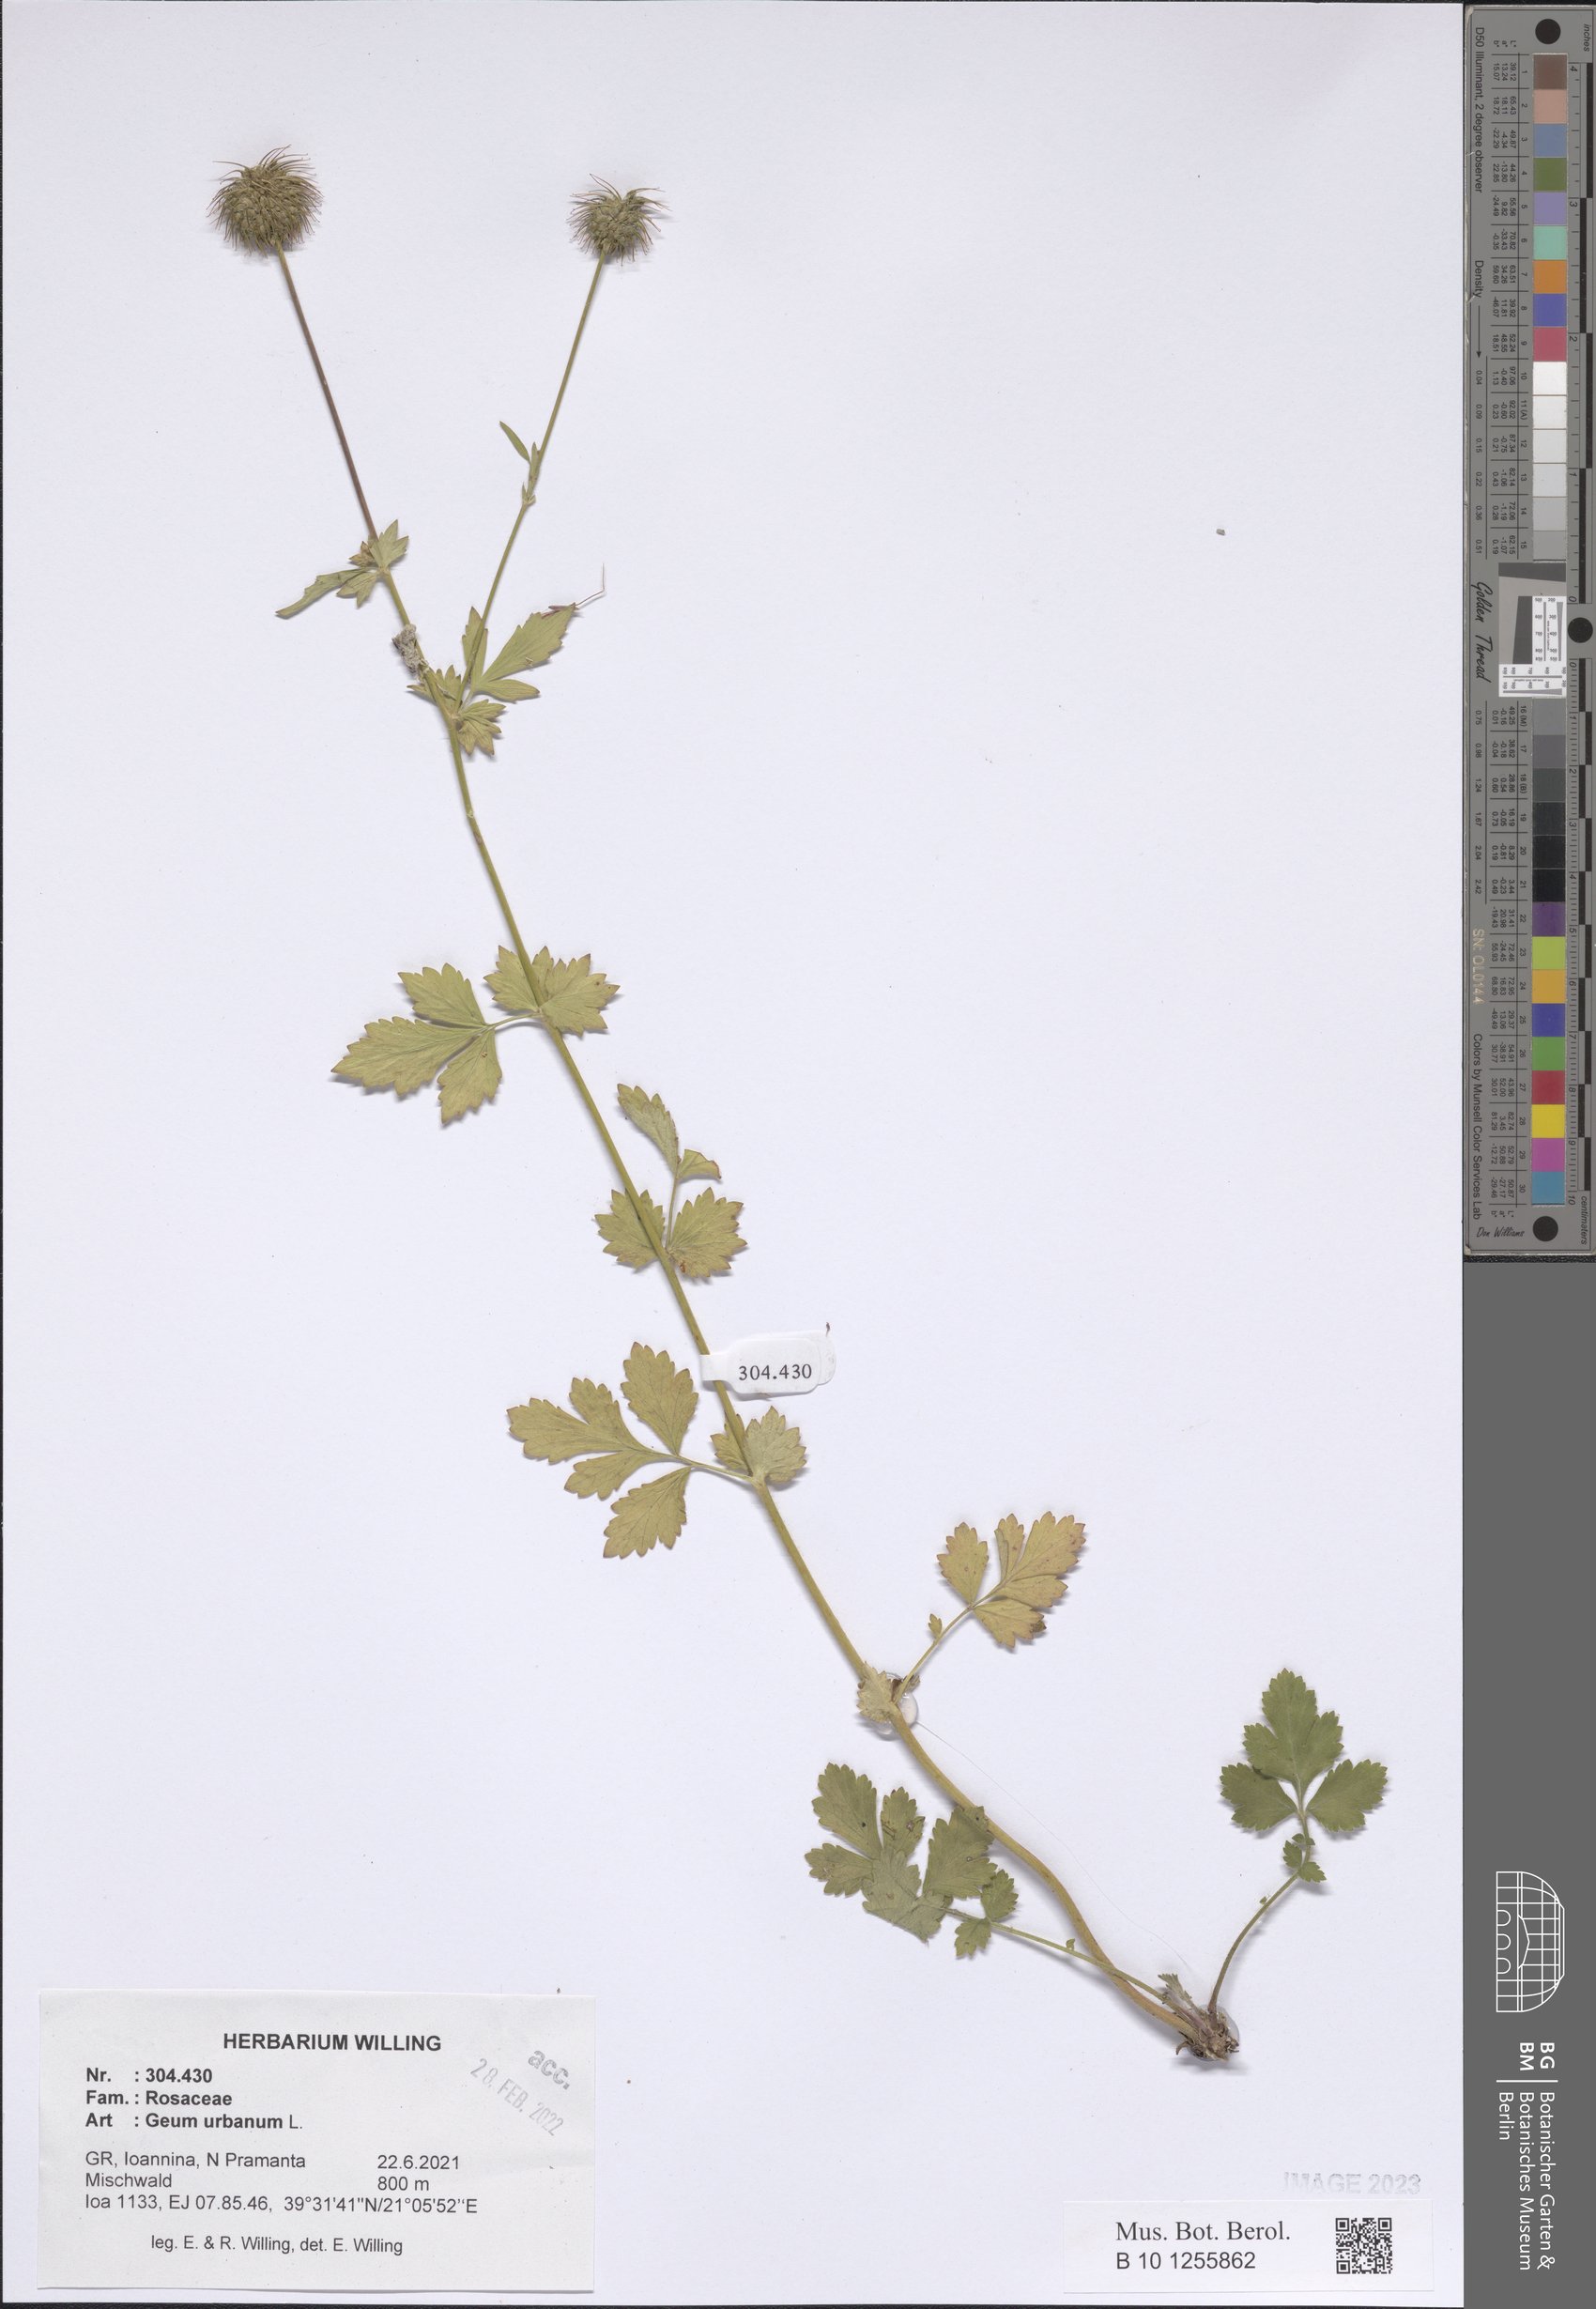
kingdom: Plantae
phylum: Tracheophyta
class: Magnoliopsida
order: Rosales
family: Rosaceae
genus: Geum
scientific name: Geum urbanum
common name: Wood avens
